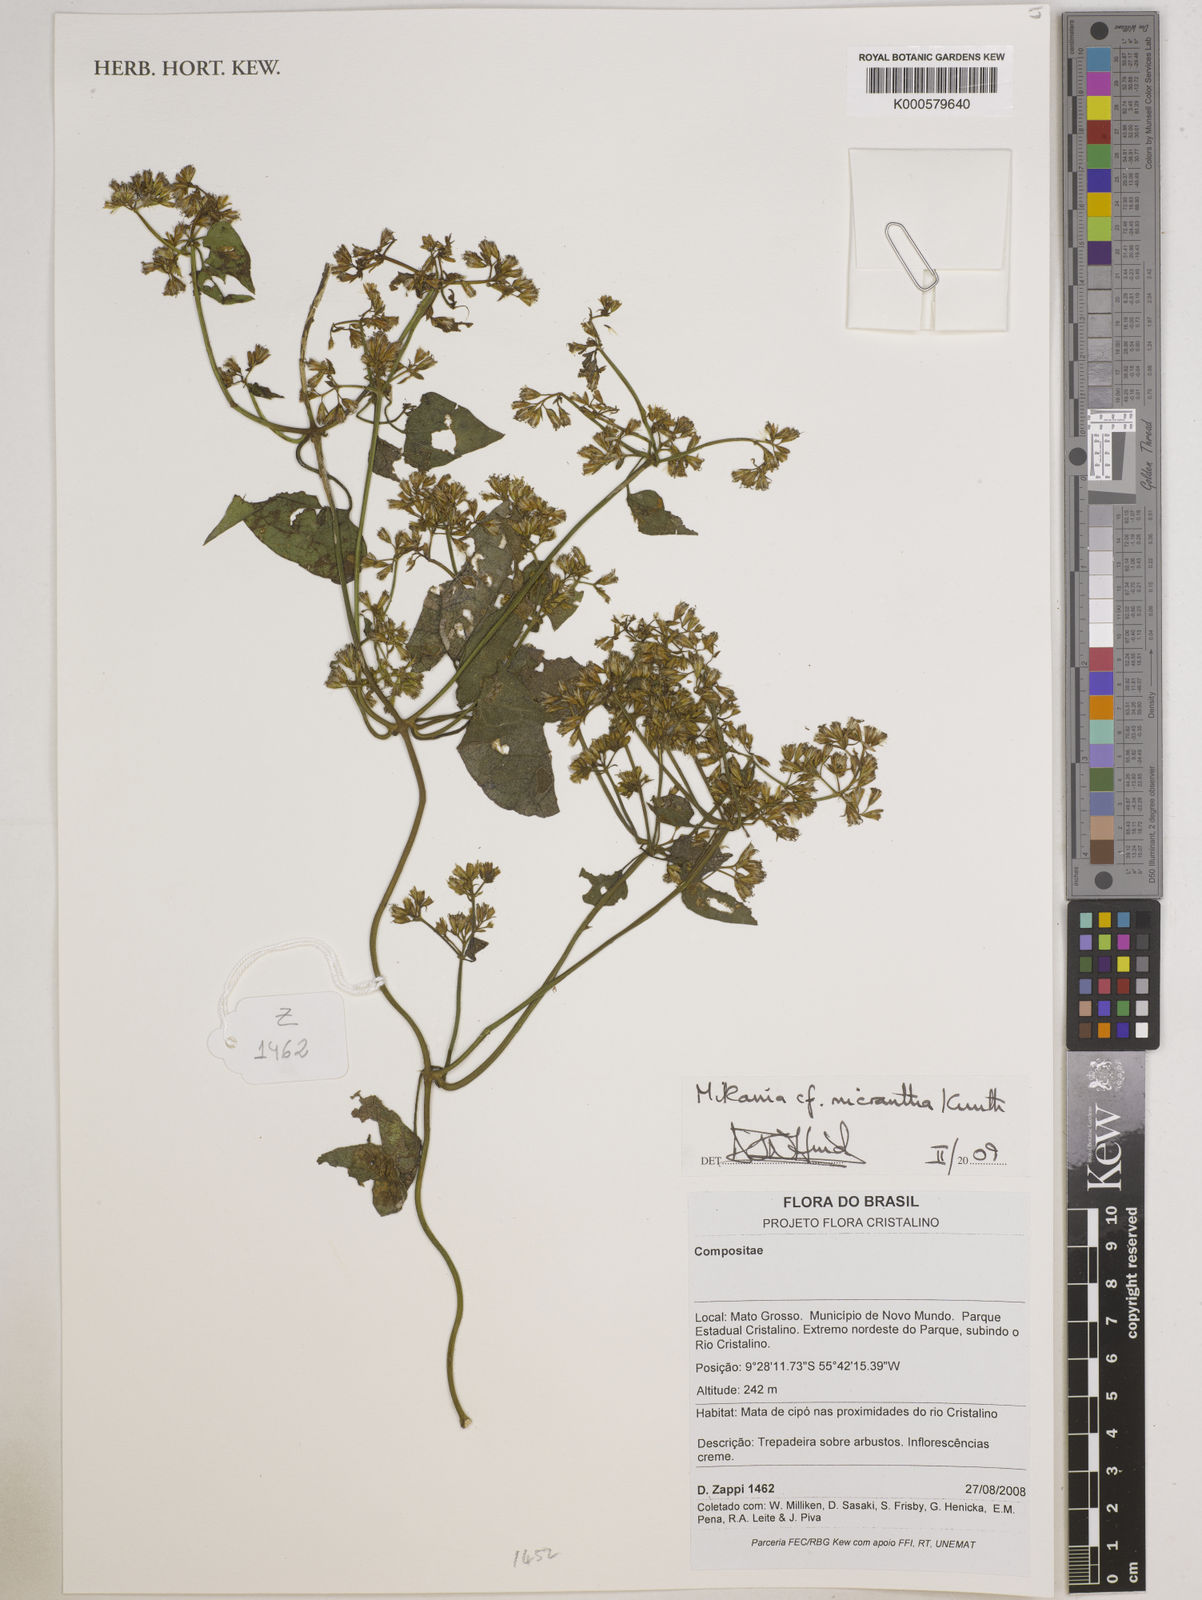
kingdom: Plantae
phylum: Tracheophyta
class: Magnoliopsida
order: Asterales
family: Asteraceae
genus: Mikania
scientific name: Mikania micrantha
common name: Mile-a-minute
